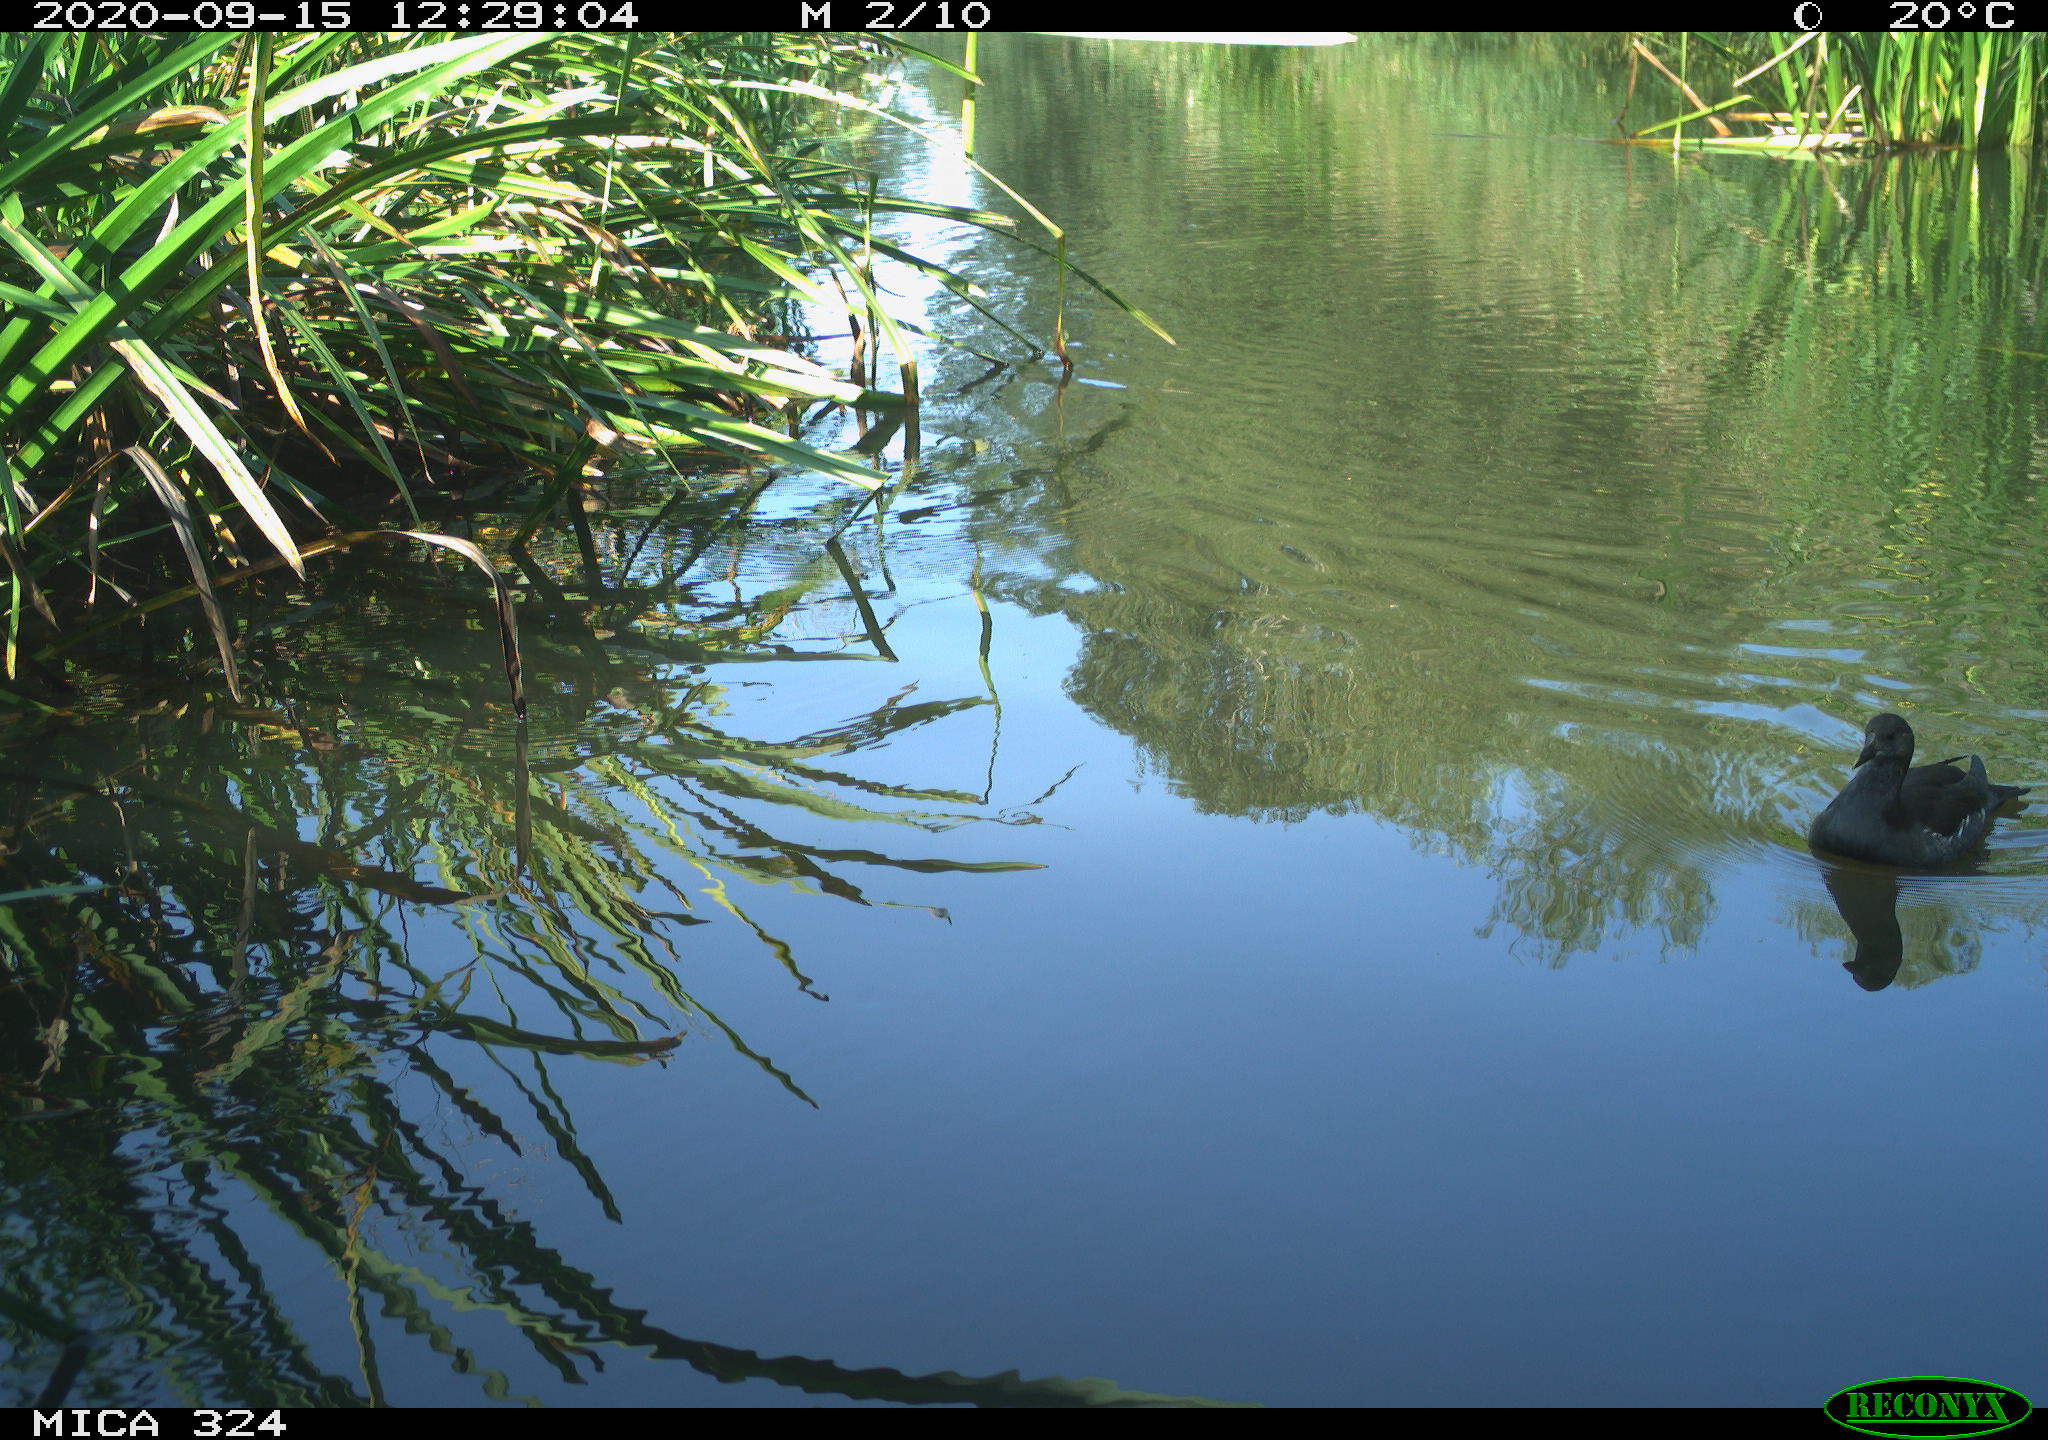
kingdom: Animalia
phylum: Chordata
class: Aves
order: Gruiformes
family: Rallidae
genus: Gallinula
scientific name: Gallinula chloropus
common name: Common moorhen
